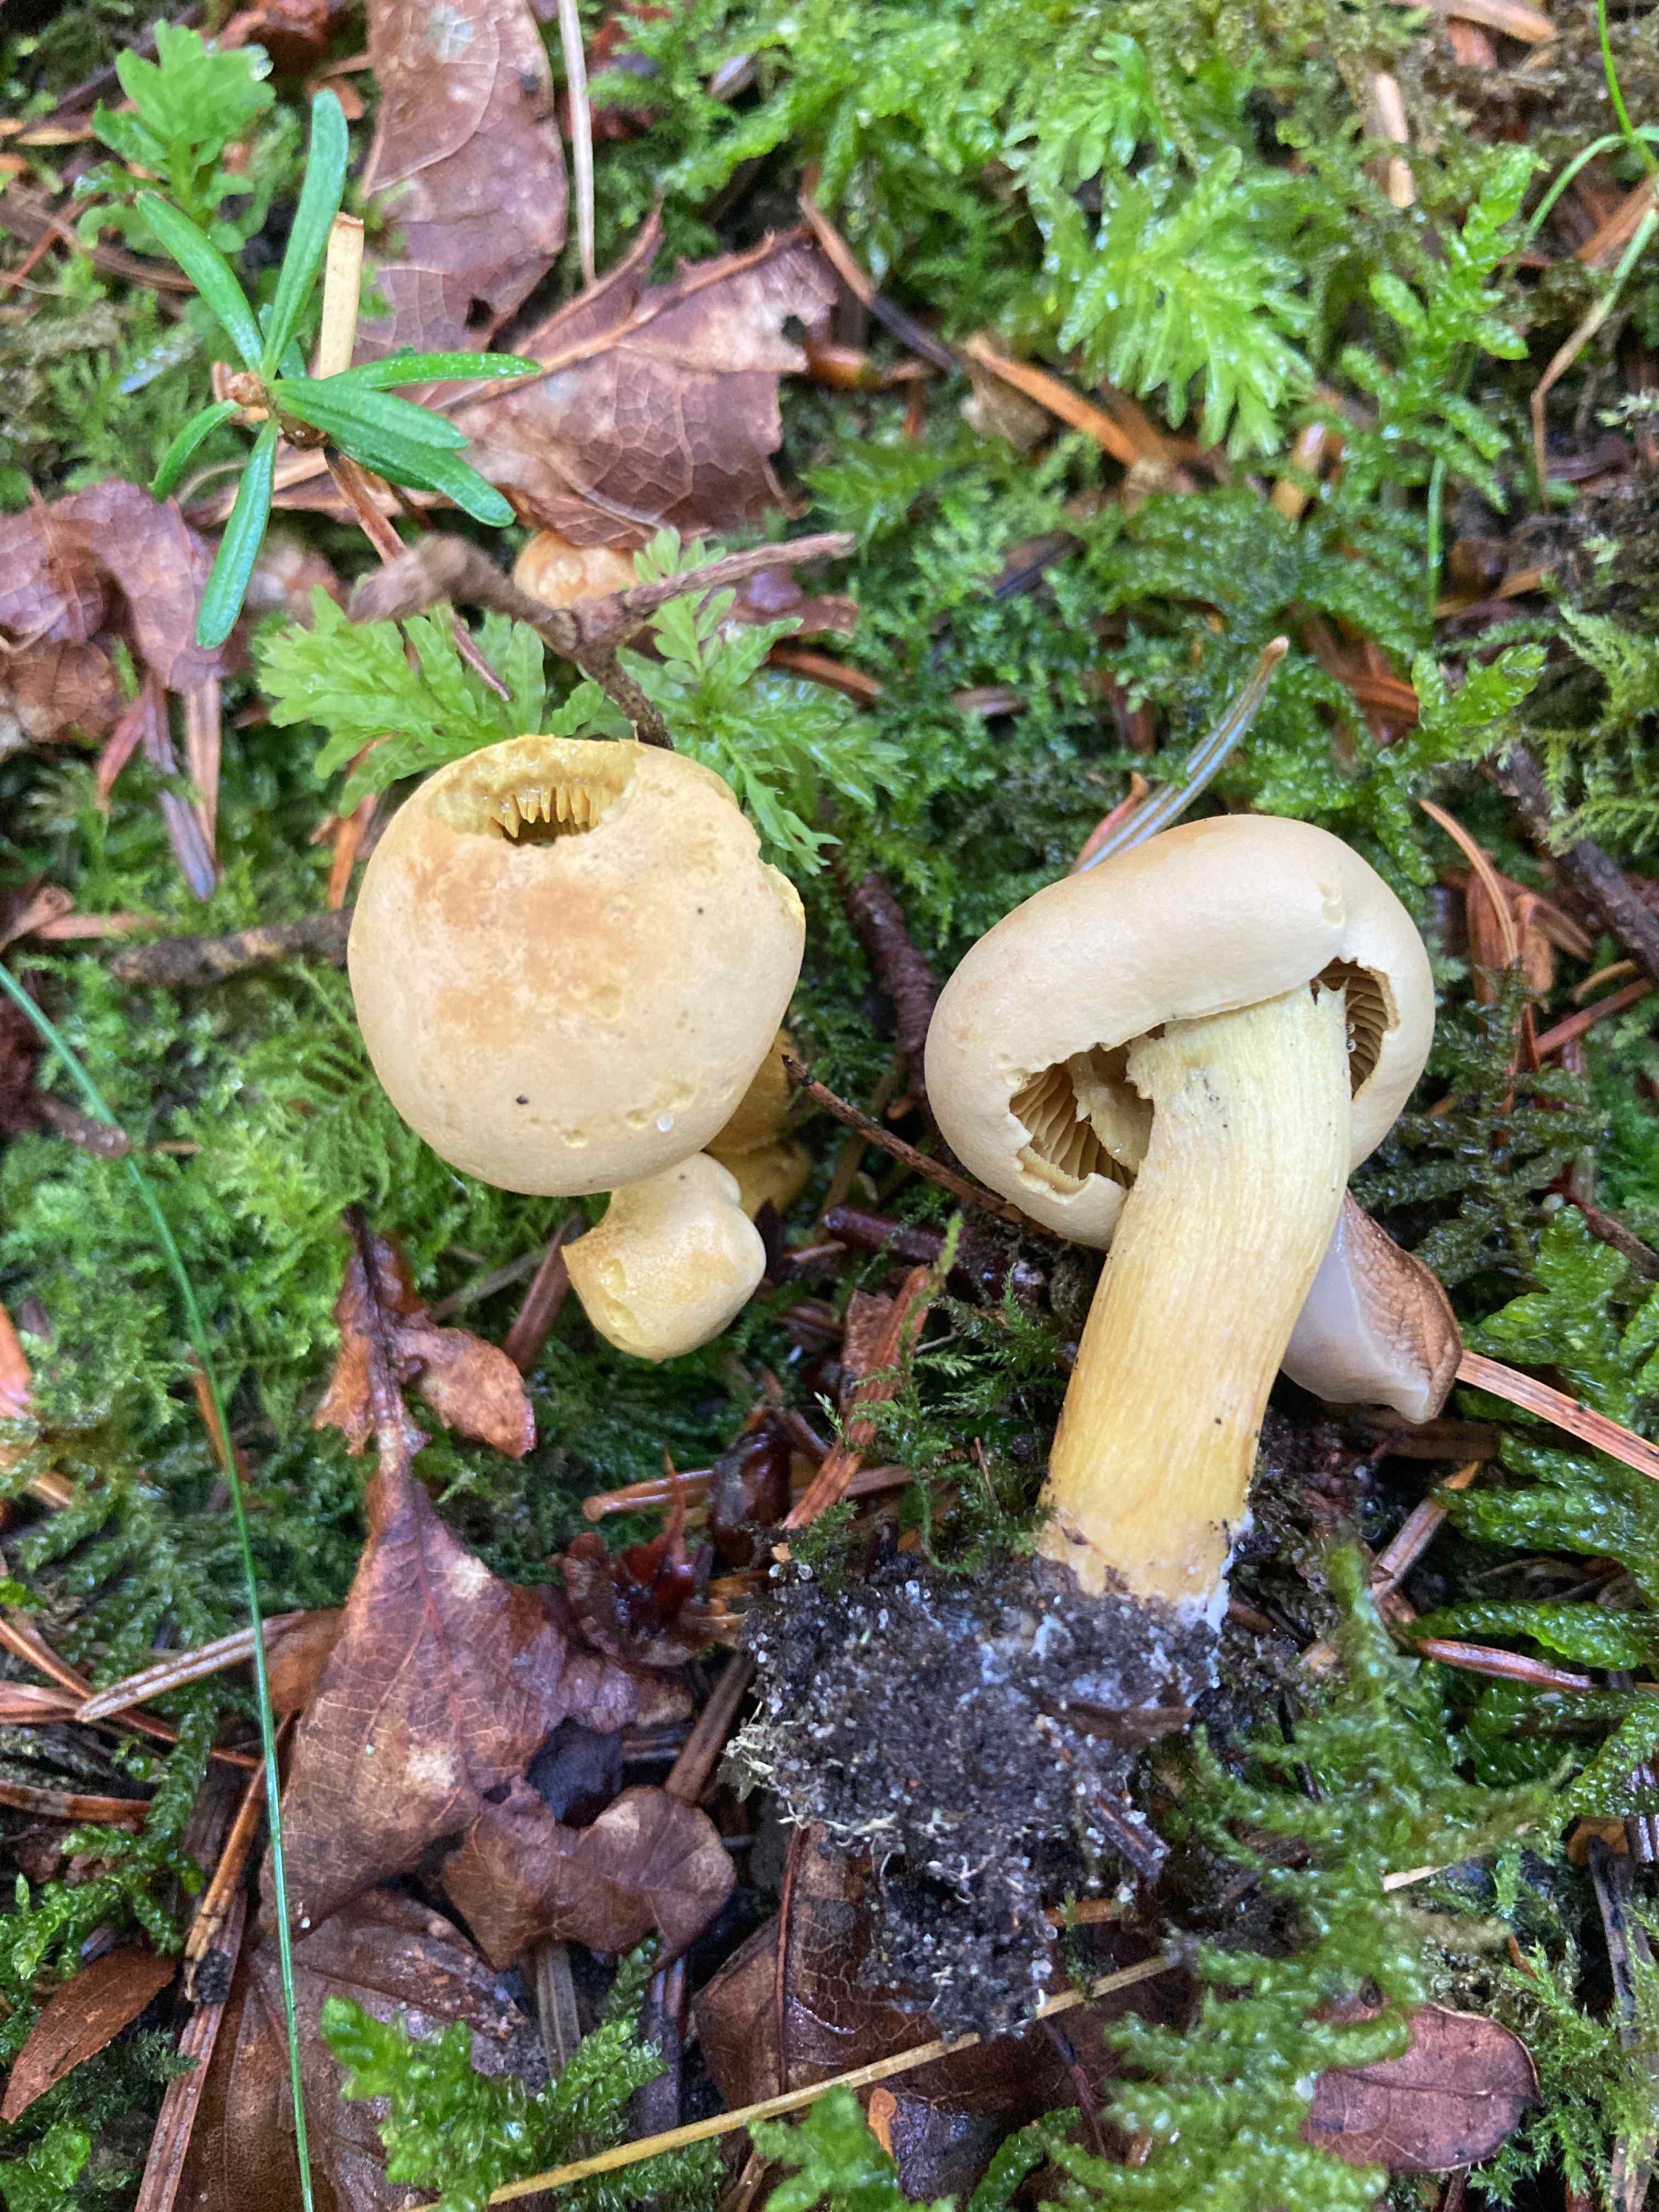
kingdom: Fungi
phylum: Basidiomycota
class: Agaricomycetes
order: Agaricales
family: Tricholomataceae
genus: Tricholoma
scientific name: Tricholoma sulphureum
